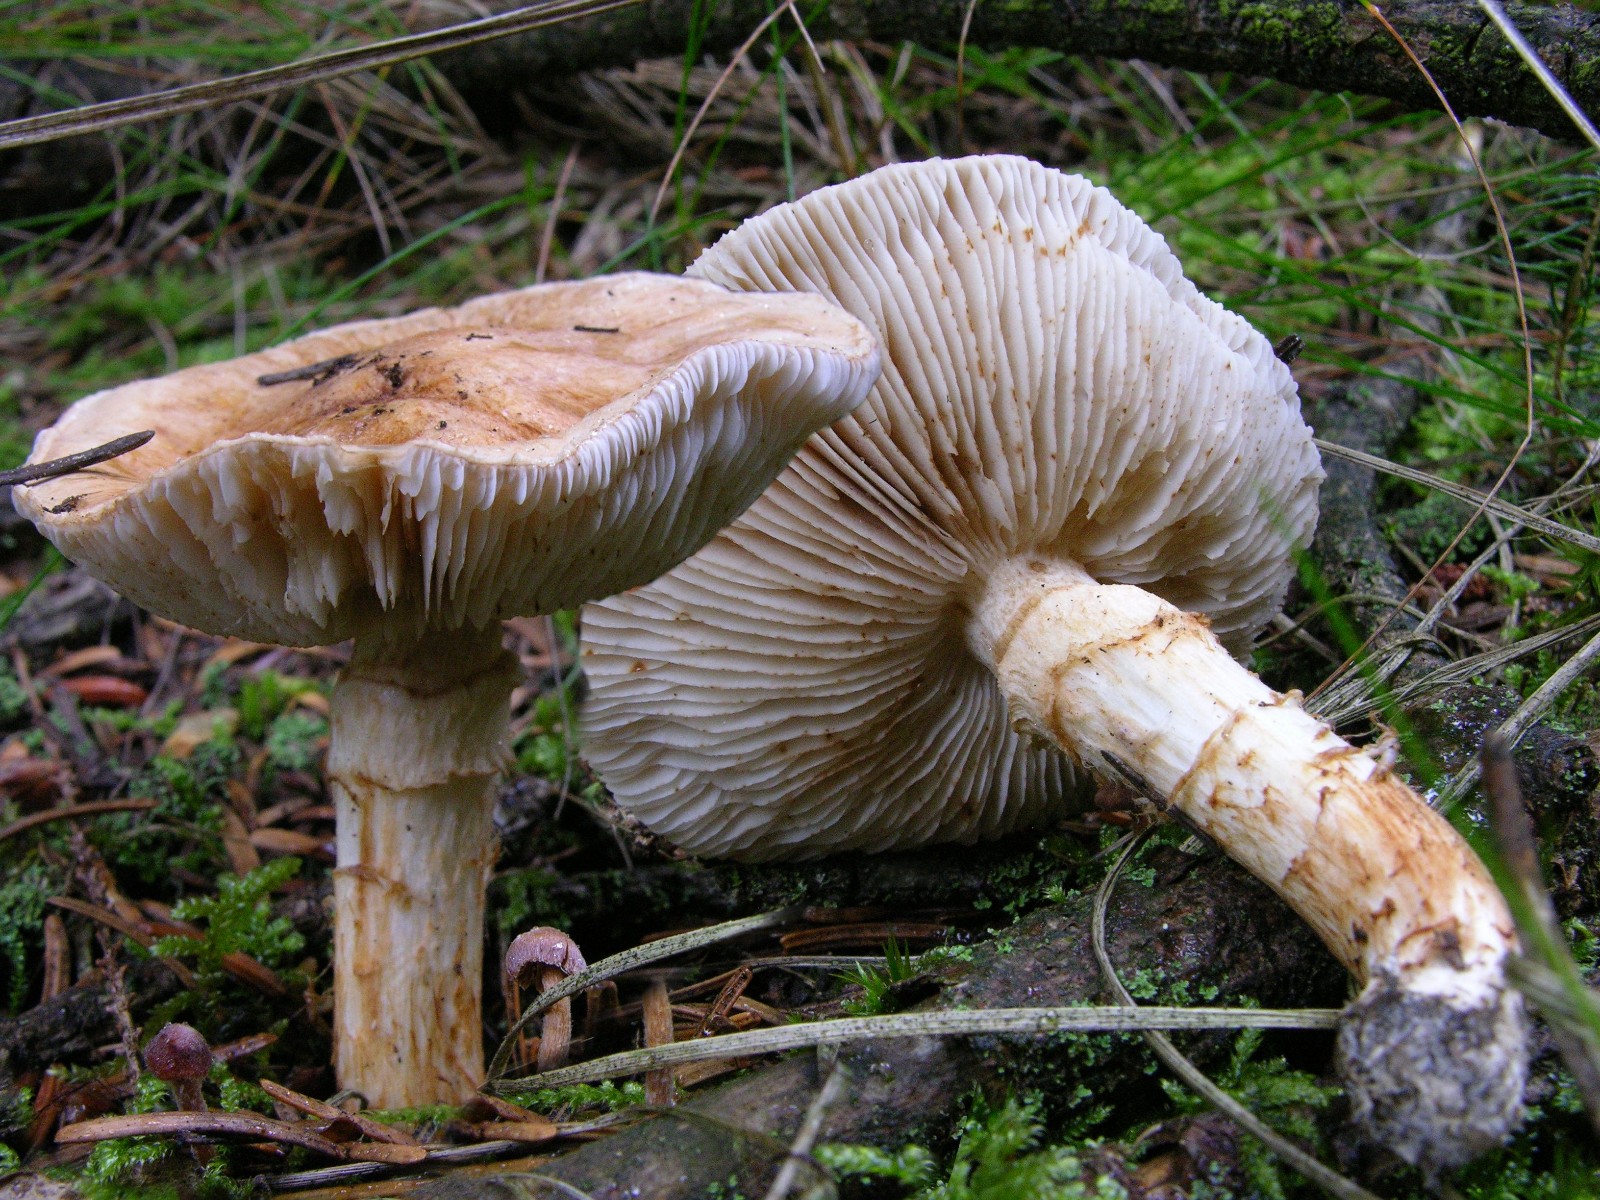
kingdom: Fungi
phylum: Basidiomycota
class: Agaricomycetes
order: Agaricales
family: Tricholomataceae
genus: Tricholoma
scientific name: Tricholoma focale
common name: halsbånd-ridderhat
